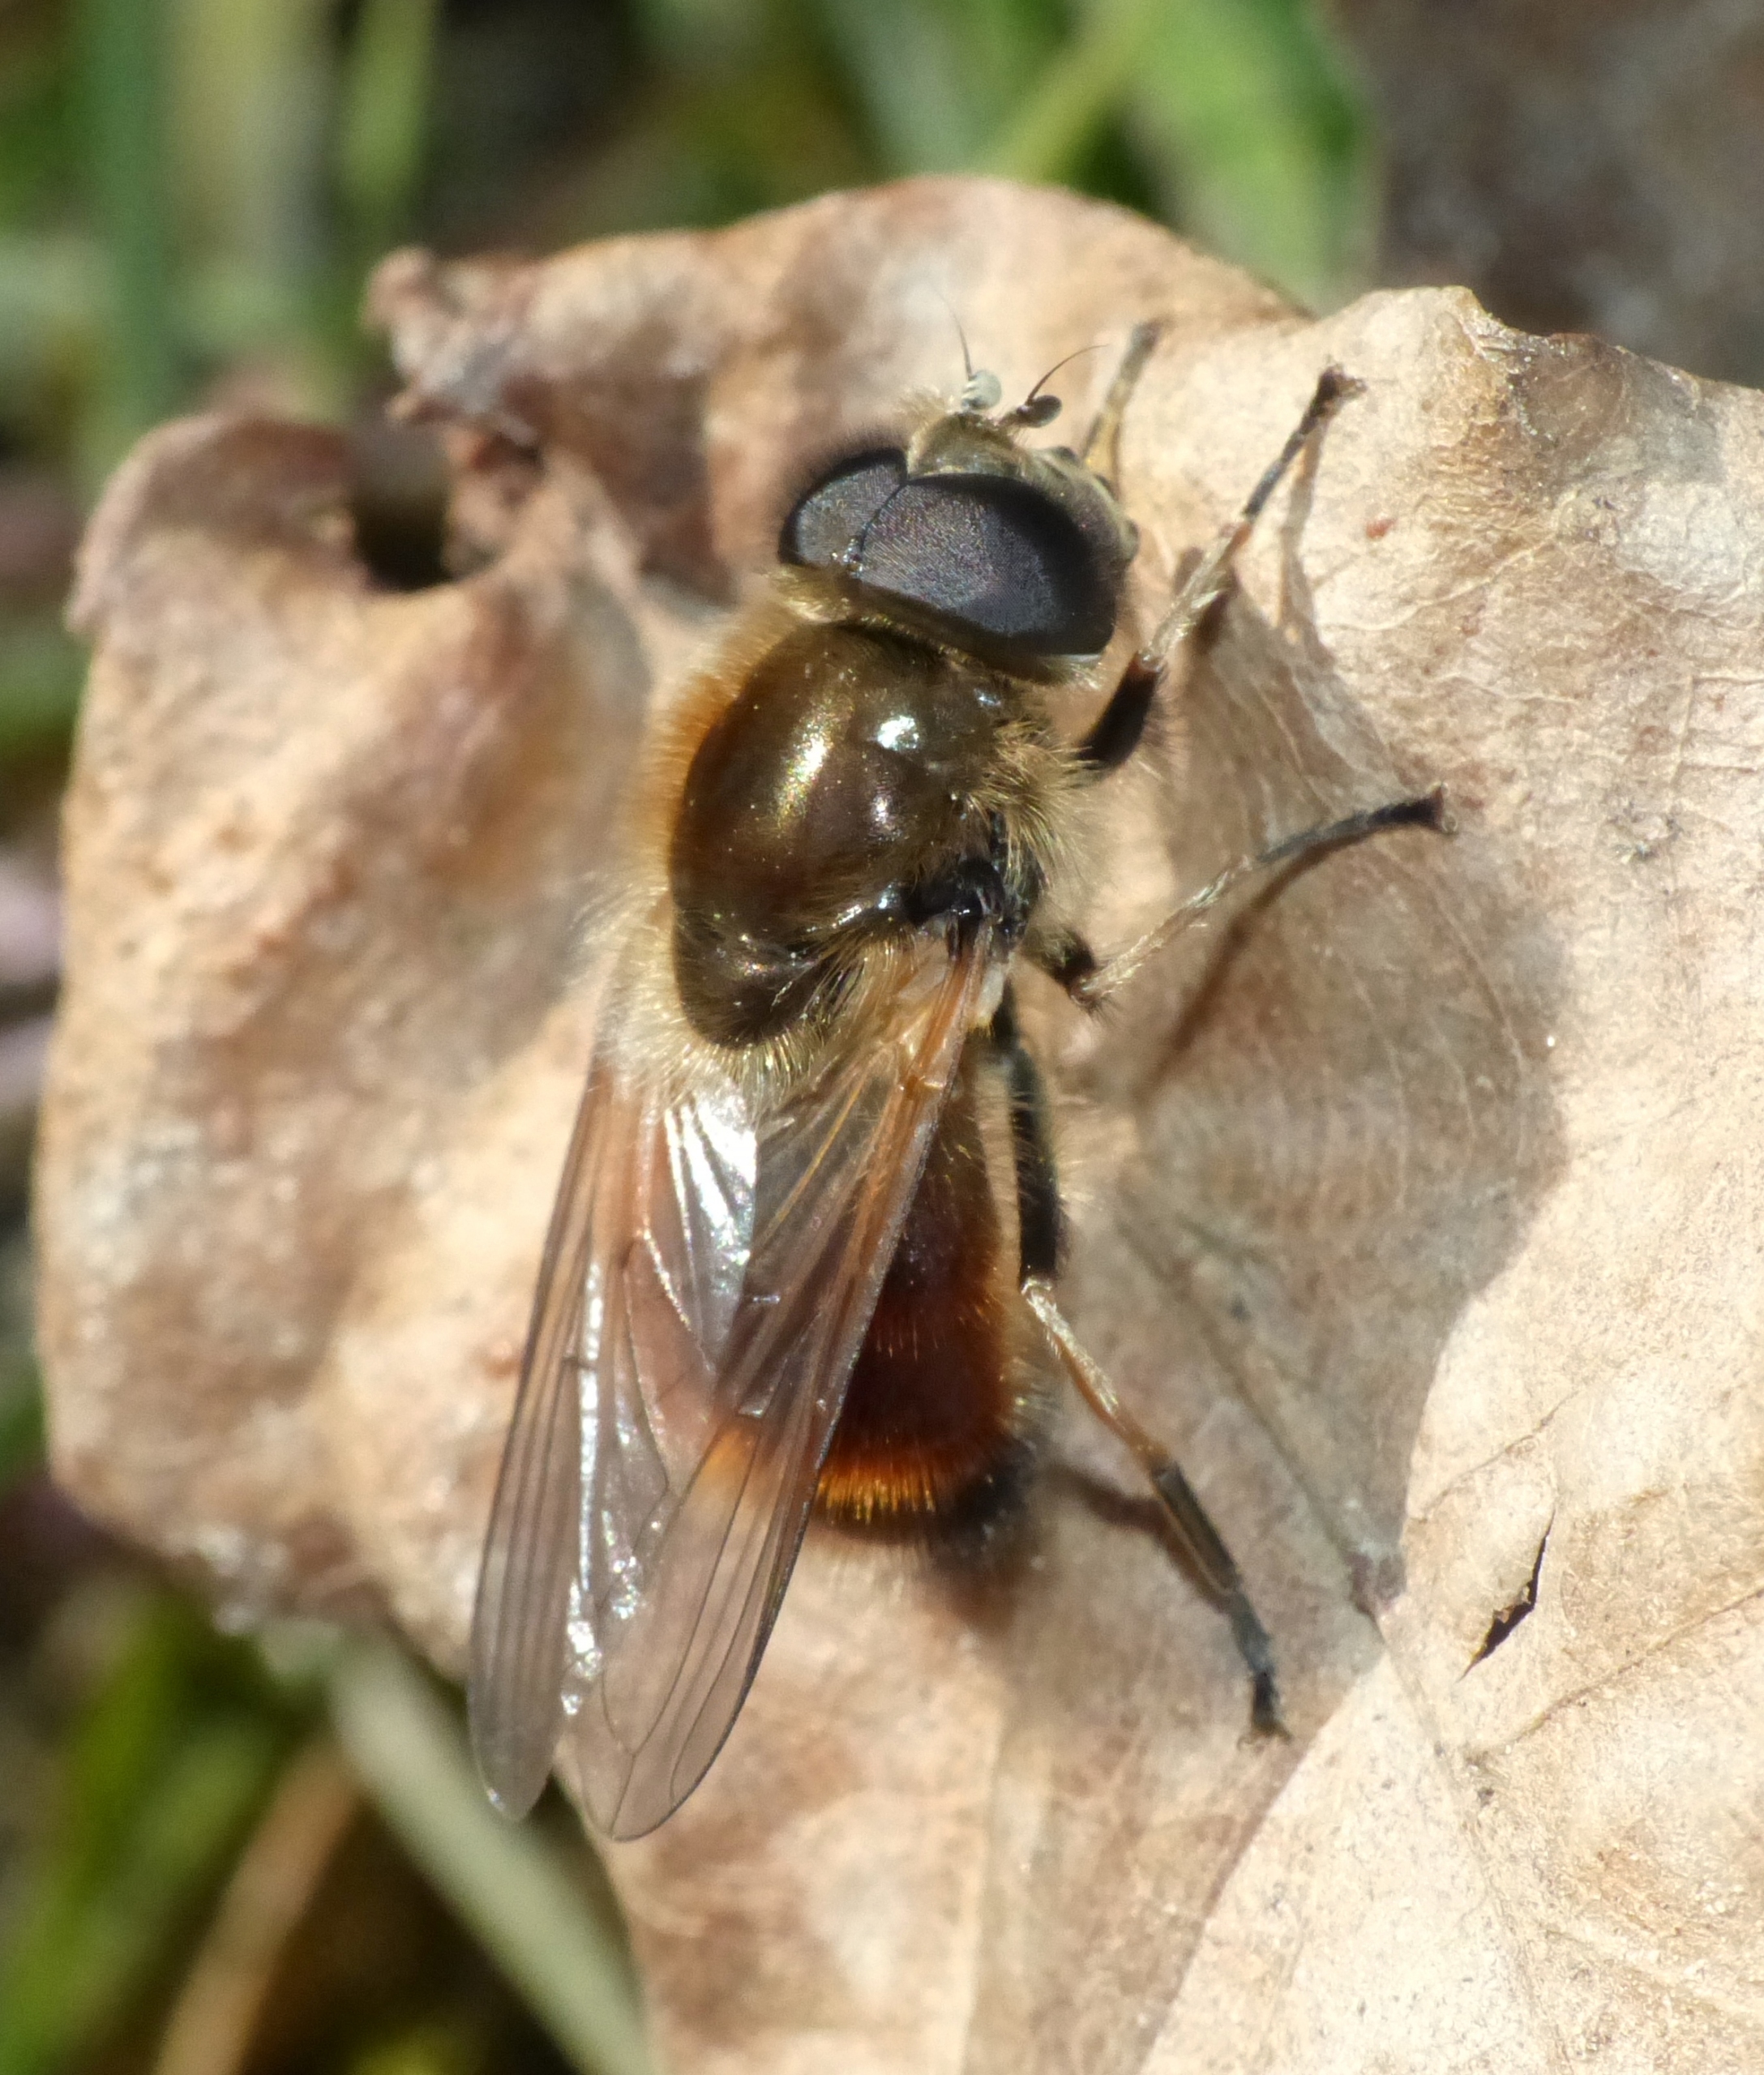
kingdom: Animalia
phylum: Arthropoda
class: Insecta
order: Diptera
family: Syrphidae
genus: Cheilosia
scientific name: Cheilosia corydon
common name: Ræverød urtesvirreflue
